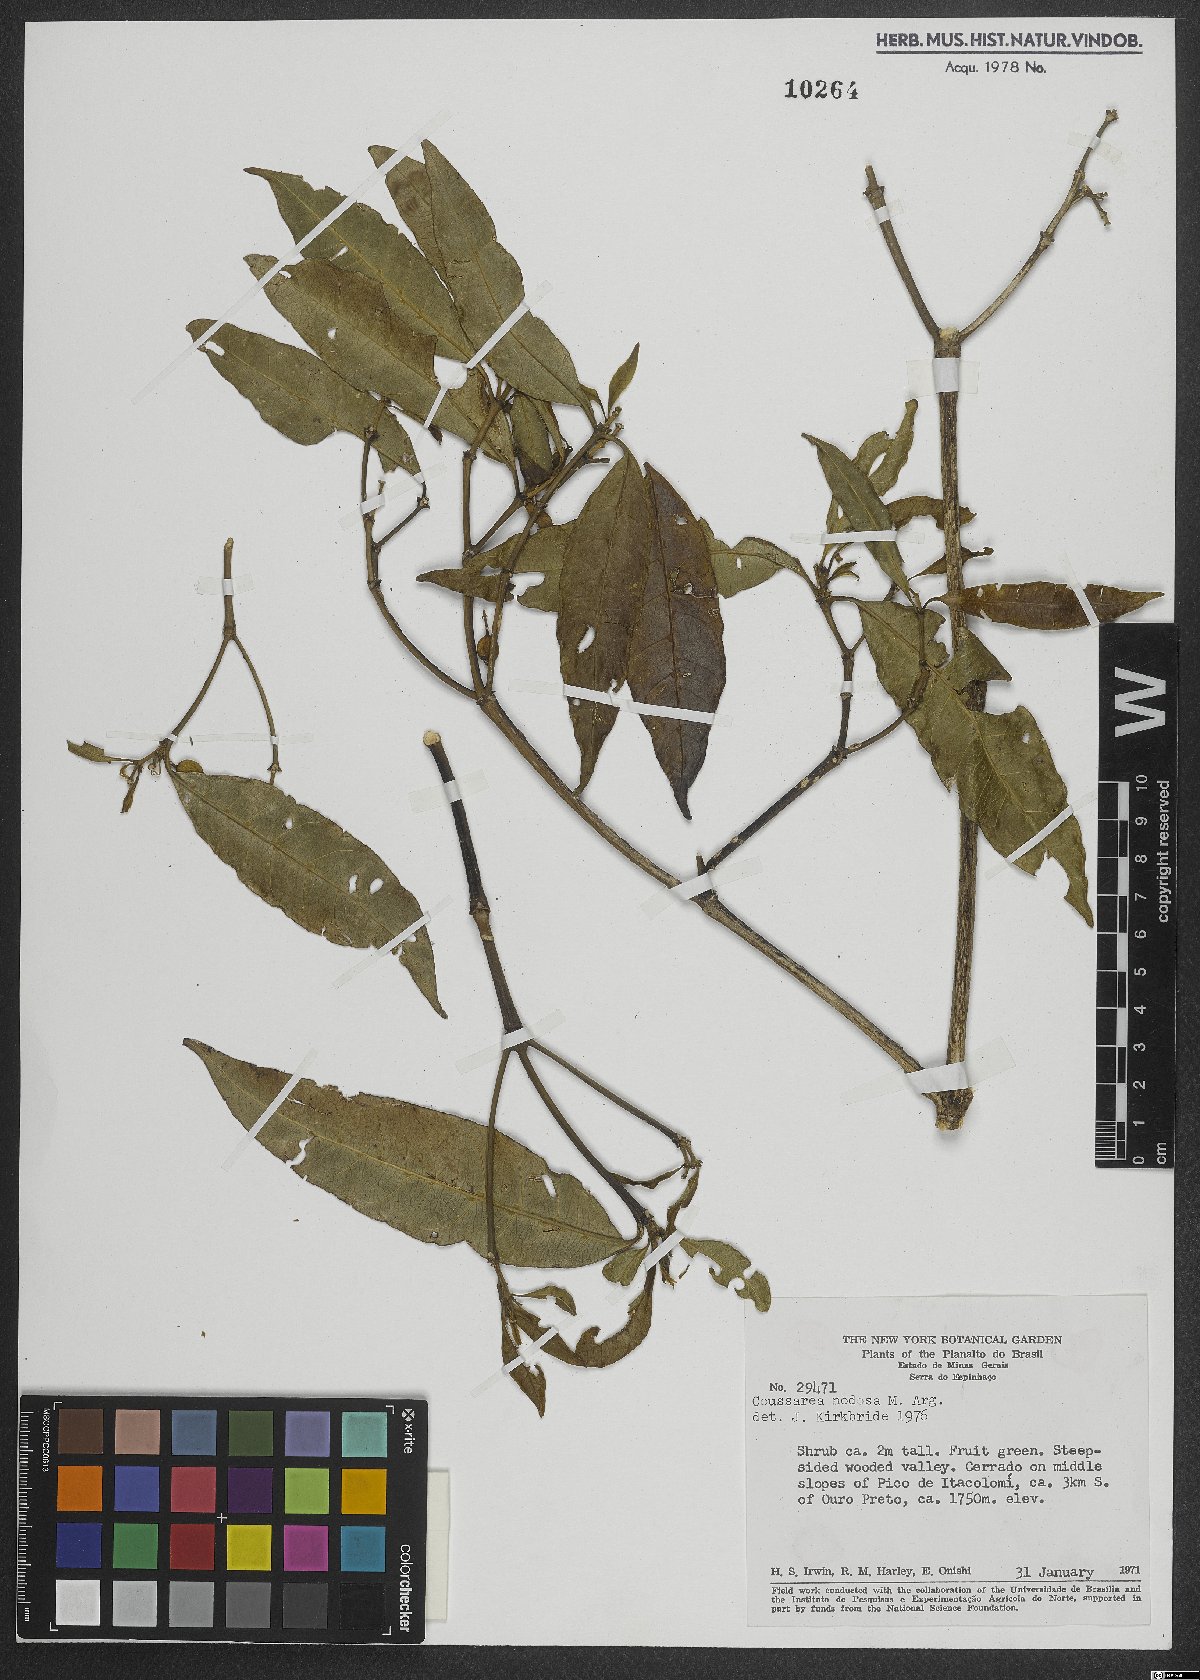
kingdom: Plantae
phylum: Tracheophyta
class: Magnoliopsida
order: Gentianales
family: Rubiaceae
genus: Coussarea
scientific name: Coussarea nodosa
